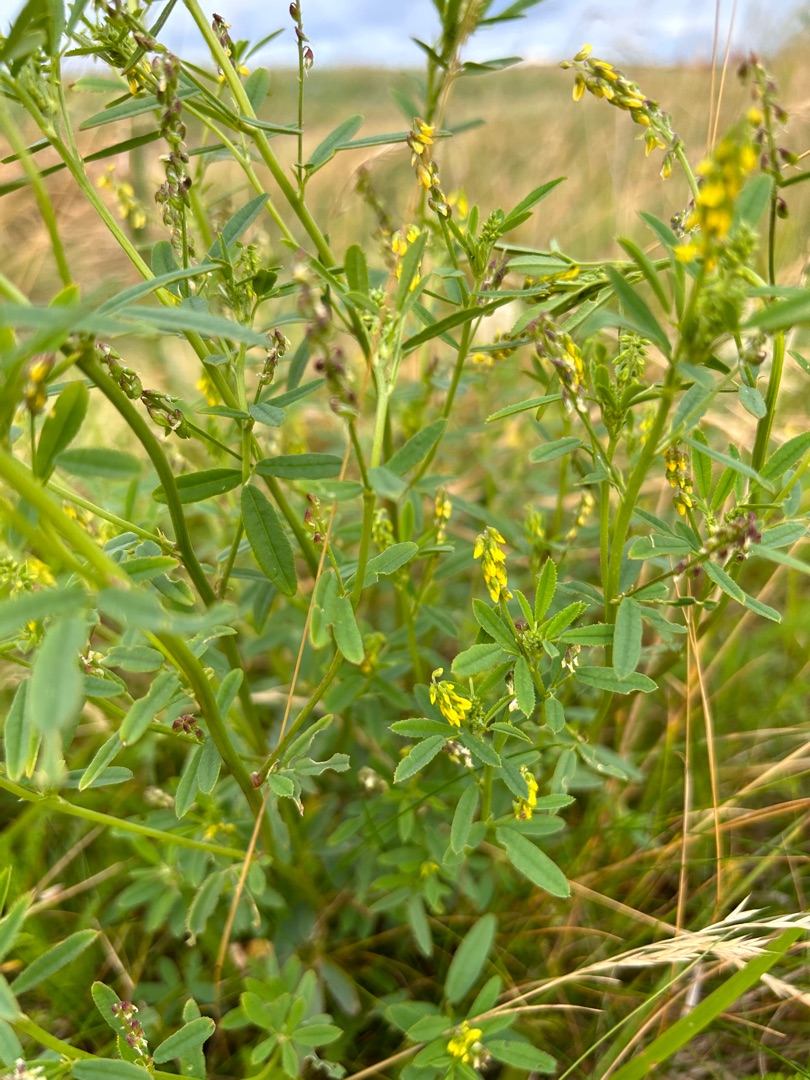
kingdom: Plantae
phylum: Tracheophyta
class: Magnoliopsida
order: Fabales
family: Fabaceae
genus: Melilotus
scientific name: Melilotus dentatus
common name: Strand-stenkløver
